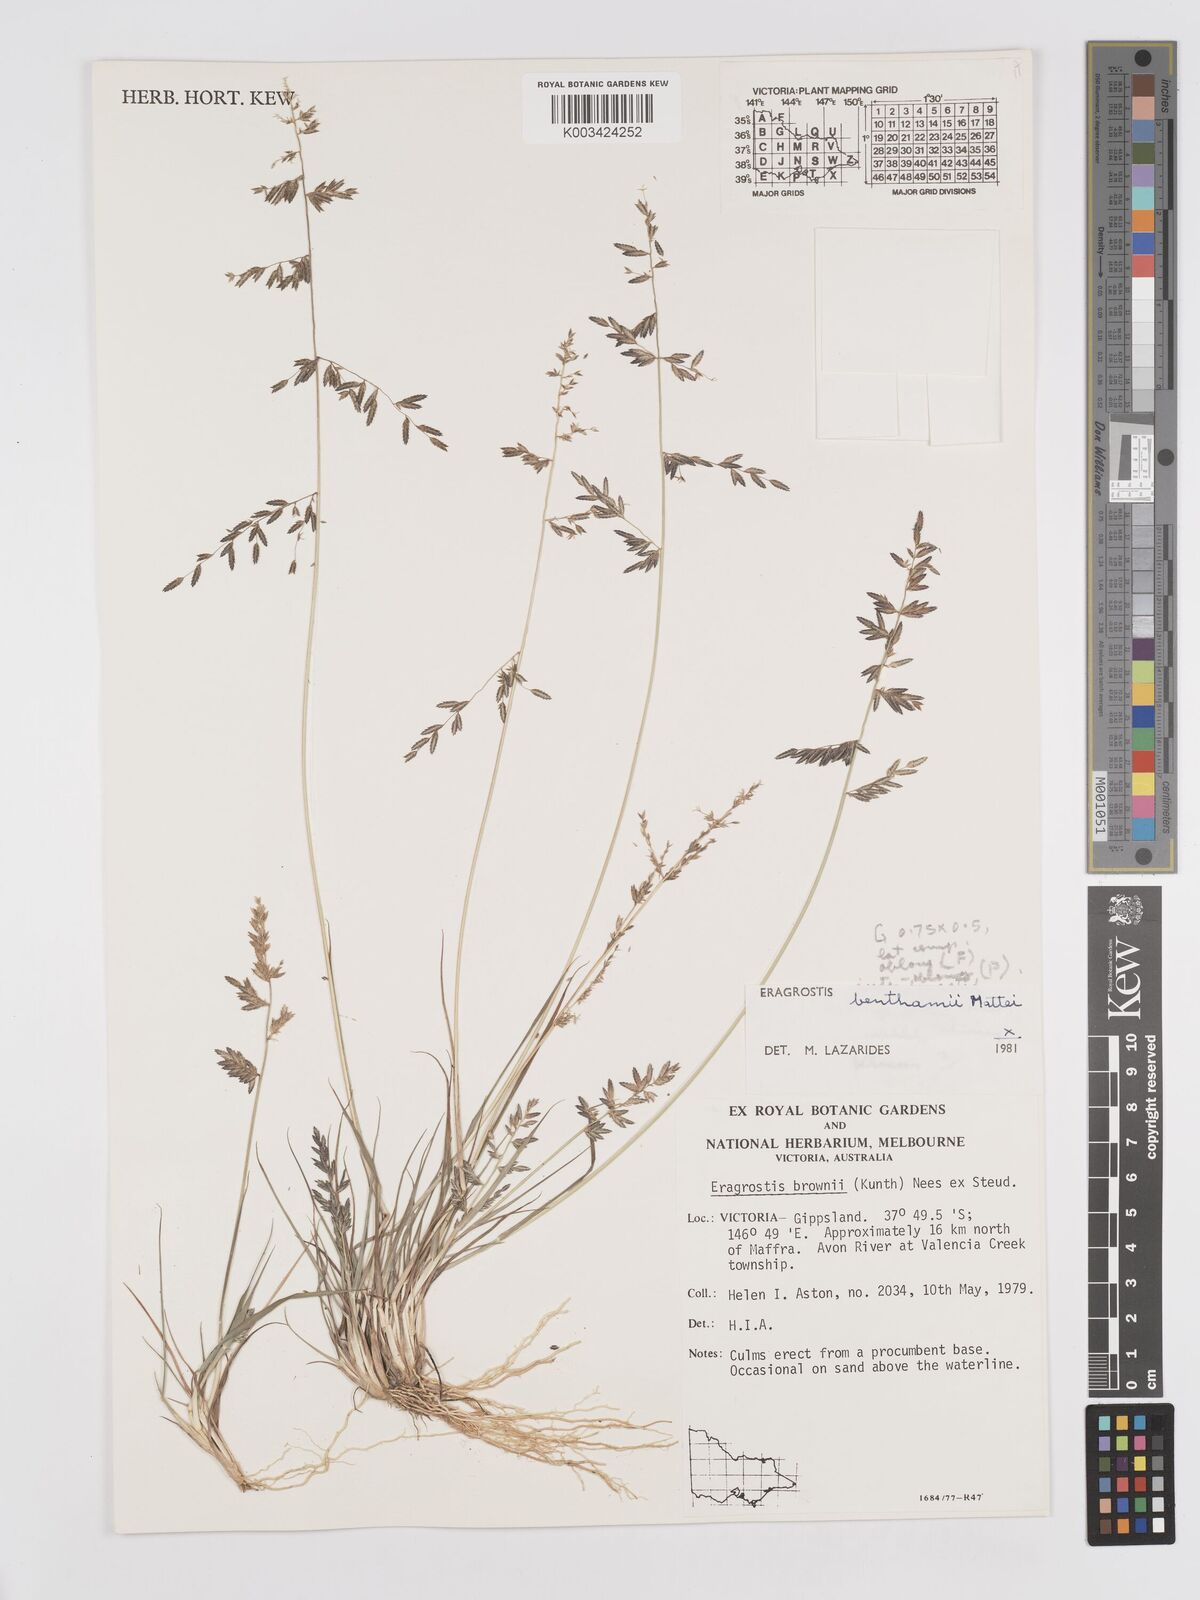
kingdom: Plantae
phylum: Tracheophyta
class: Liliopsida
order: Poales
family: Poaceae
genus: Eragrostis
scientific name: Eragrostis brownii
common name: Lovegrass
